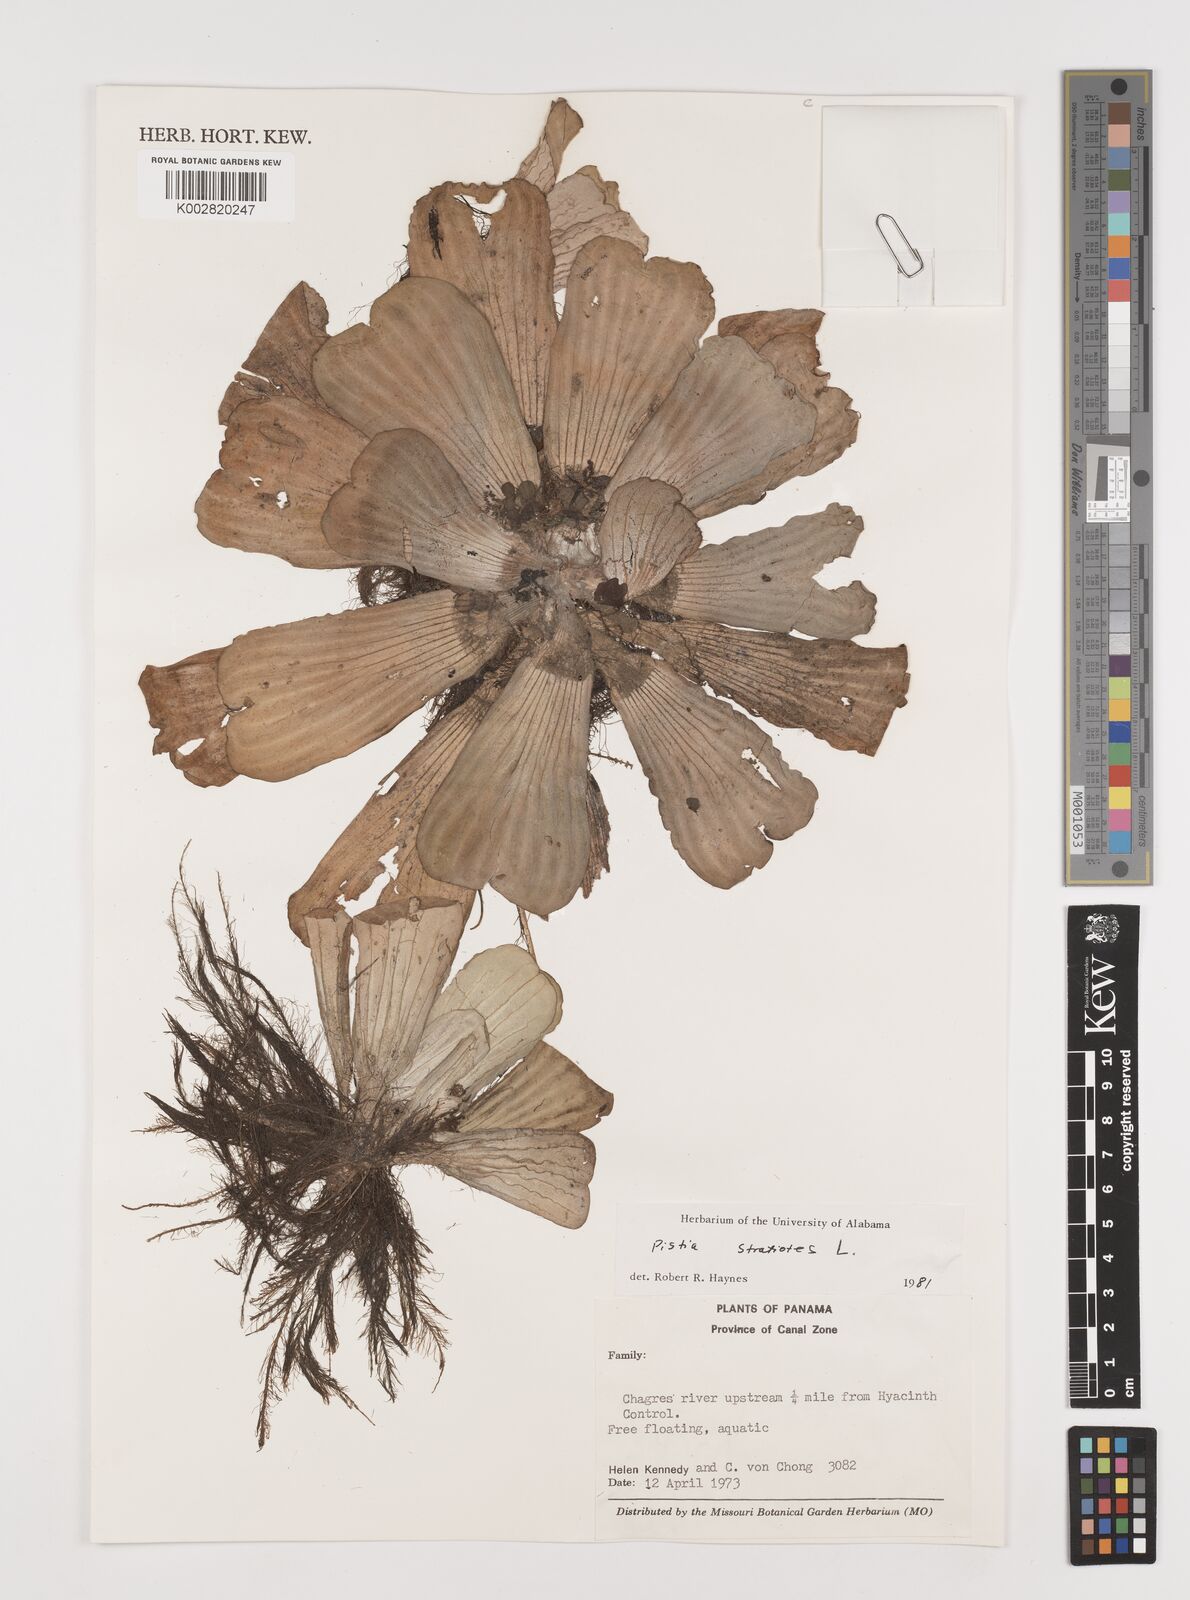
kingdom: Plantae
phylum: Tracheophyta
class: Liliopsida
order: Alismatales
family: Araceae
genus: Pistia
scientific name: Pistia stratiotes
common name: Water lettuce
